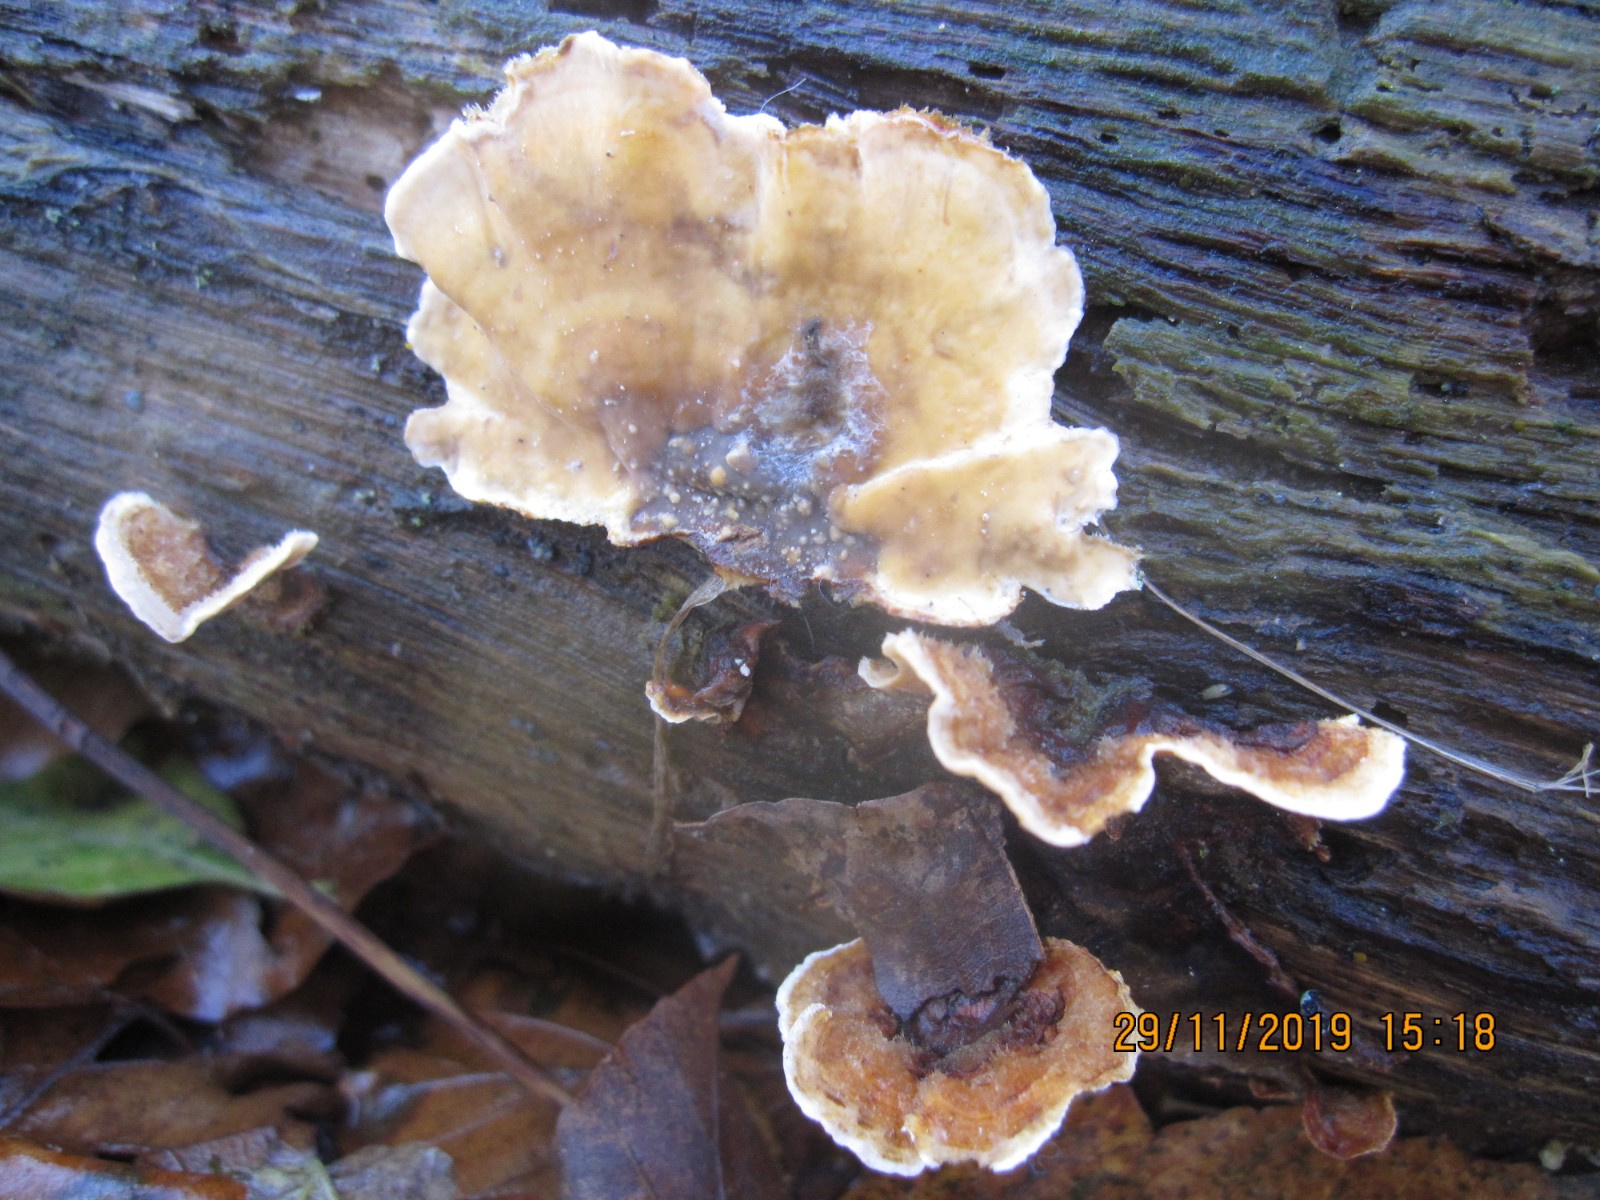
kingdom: Fungi
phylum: Basidiomycota
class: Agaricomycetes
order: Russulales
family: Stereaceae
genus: Stereum
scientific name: Stereum subtomentosum
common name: smuk lædersvamp
